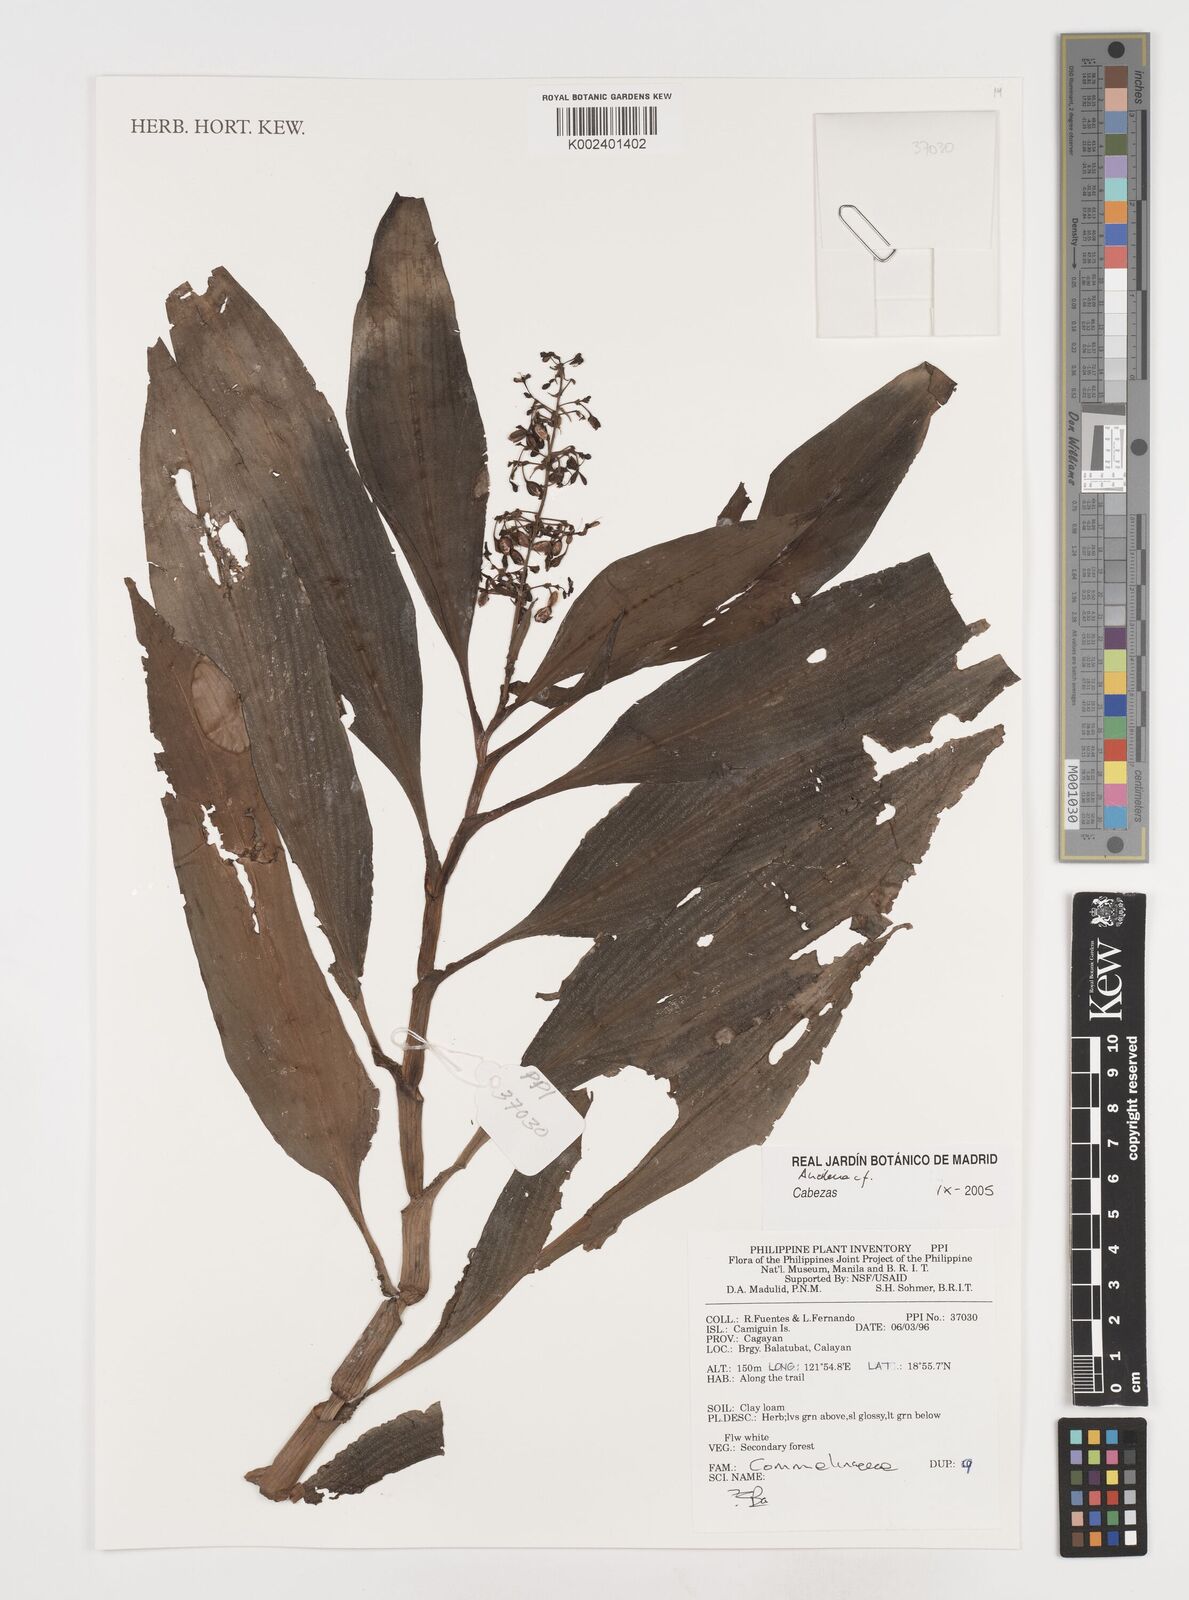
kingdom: Plantae
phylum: Tracheophyta
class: Liliopsida
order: Commelinales
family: Commelinaceae
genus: Pollia
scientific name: Pollia macrophylla
